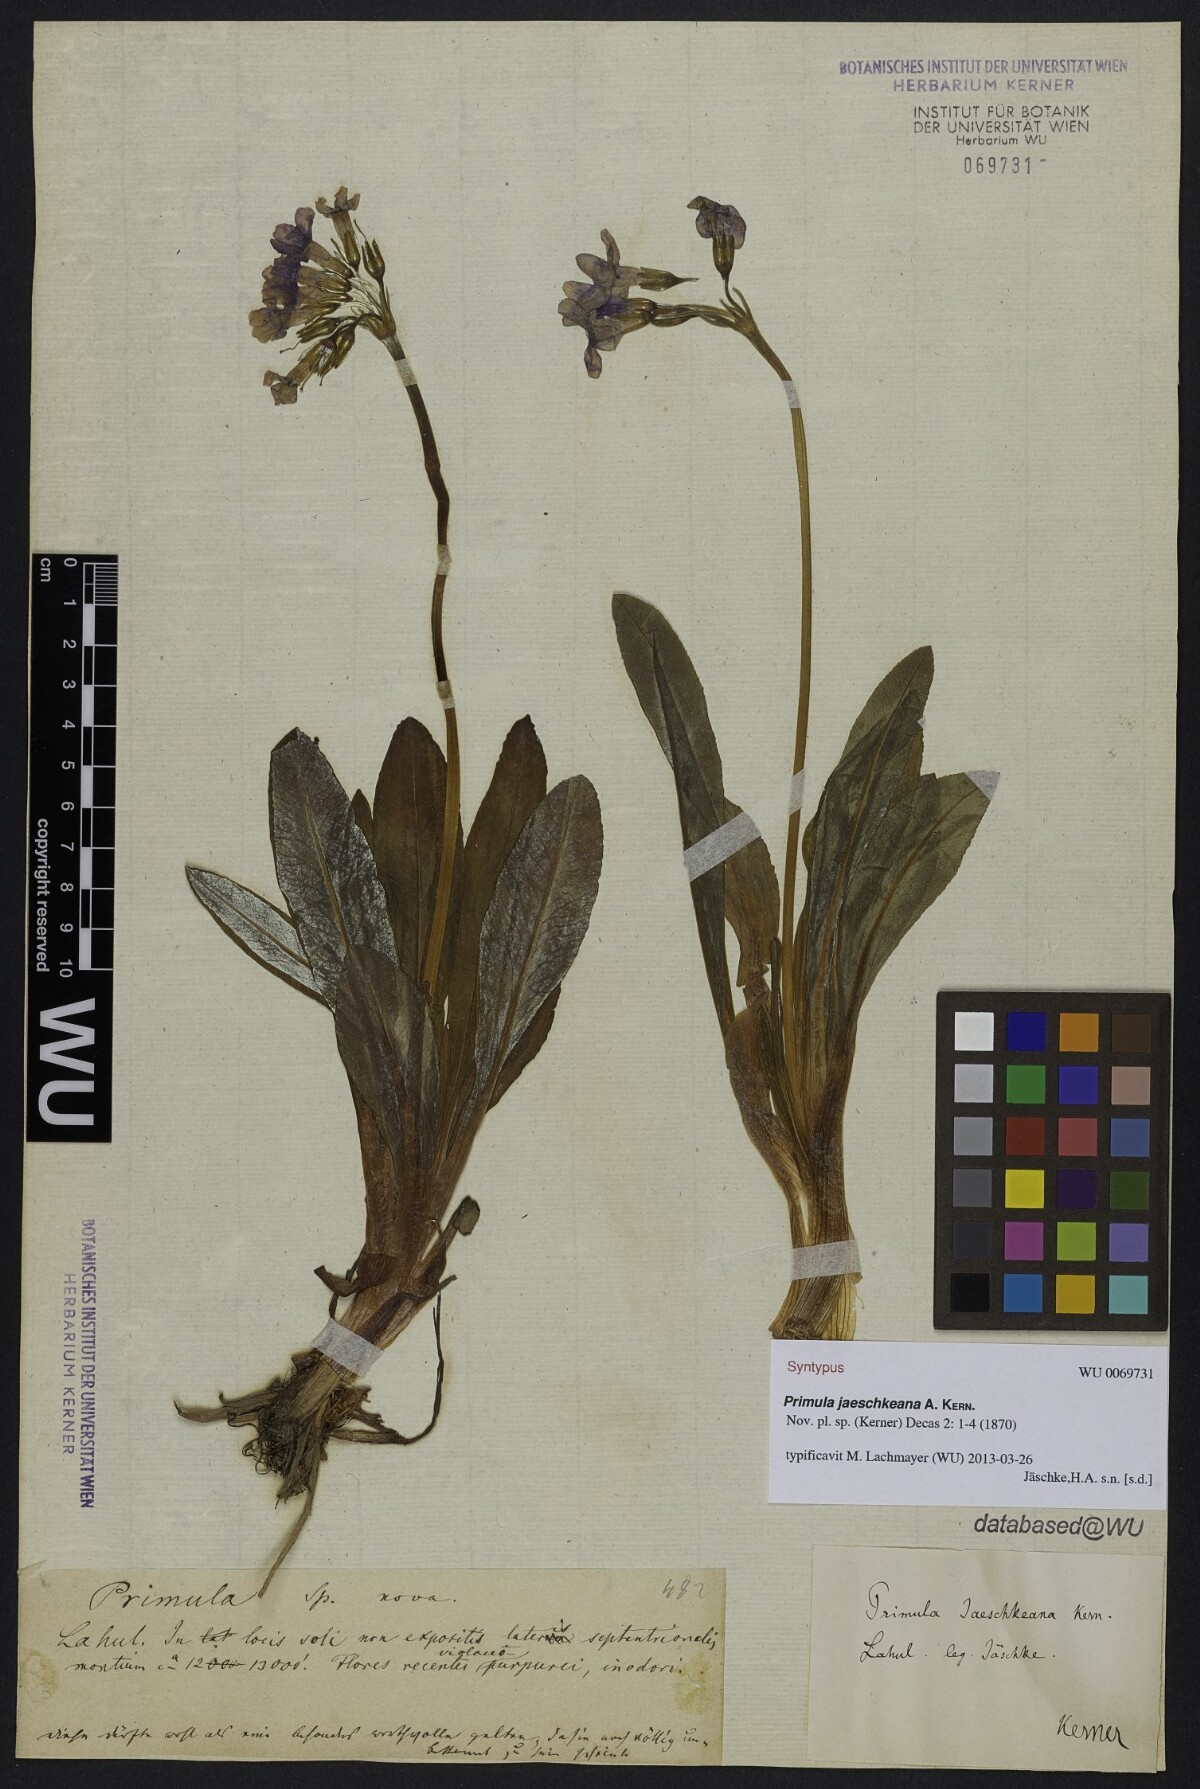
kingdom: Plantae
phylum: Tracheophyta
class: Magnoliopsida
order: Ericales
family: Primulaceae
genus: Primula
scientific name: Primula macrophylla
